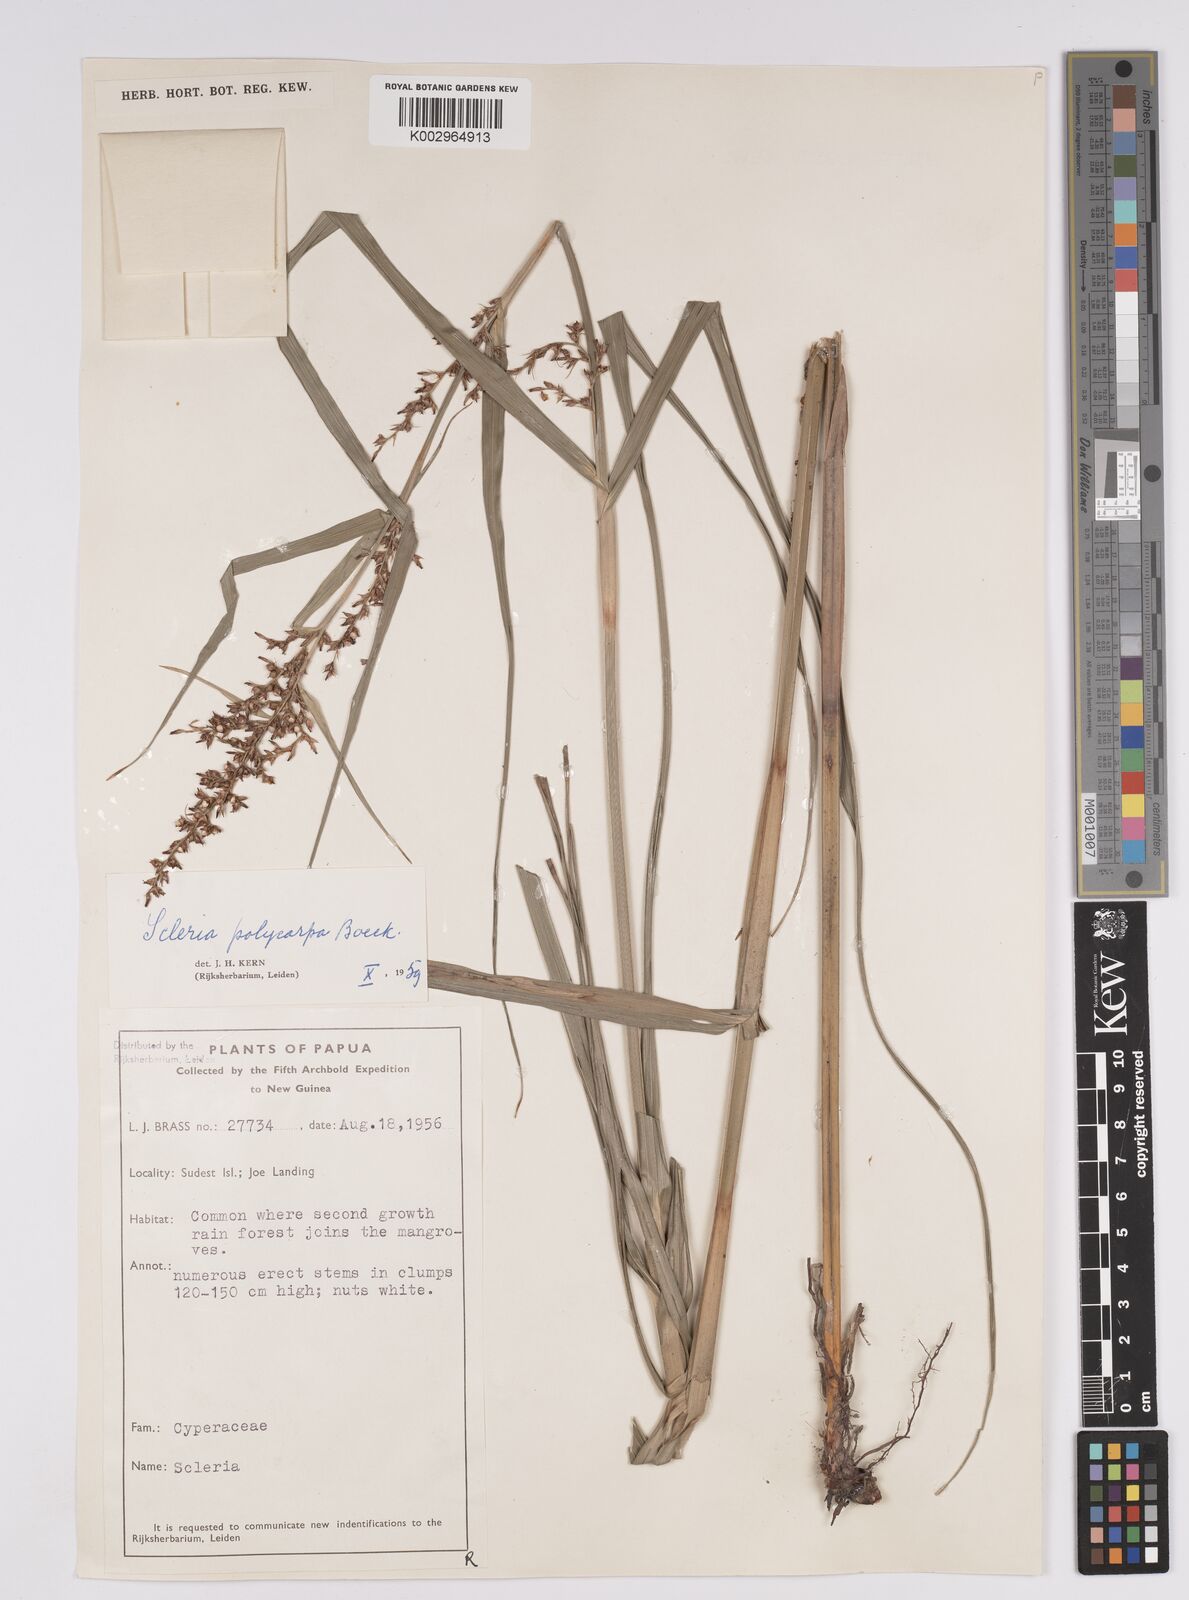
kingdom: Plantae
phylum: Tracheophyta
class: Liliopsida
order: Poales
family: Cyperaceae
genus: Scleria
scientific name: Scleria polycarpa
